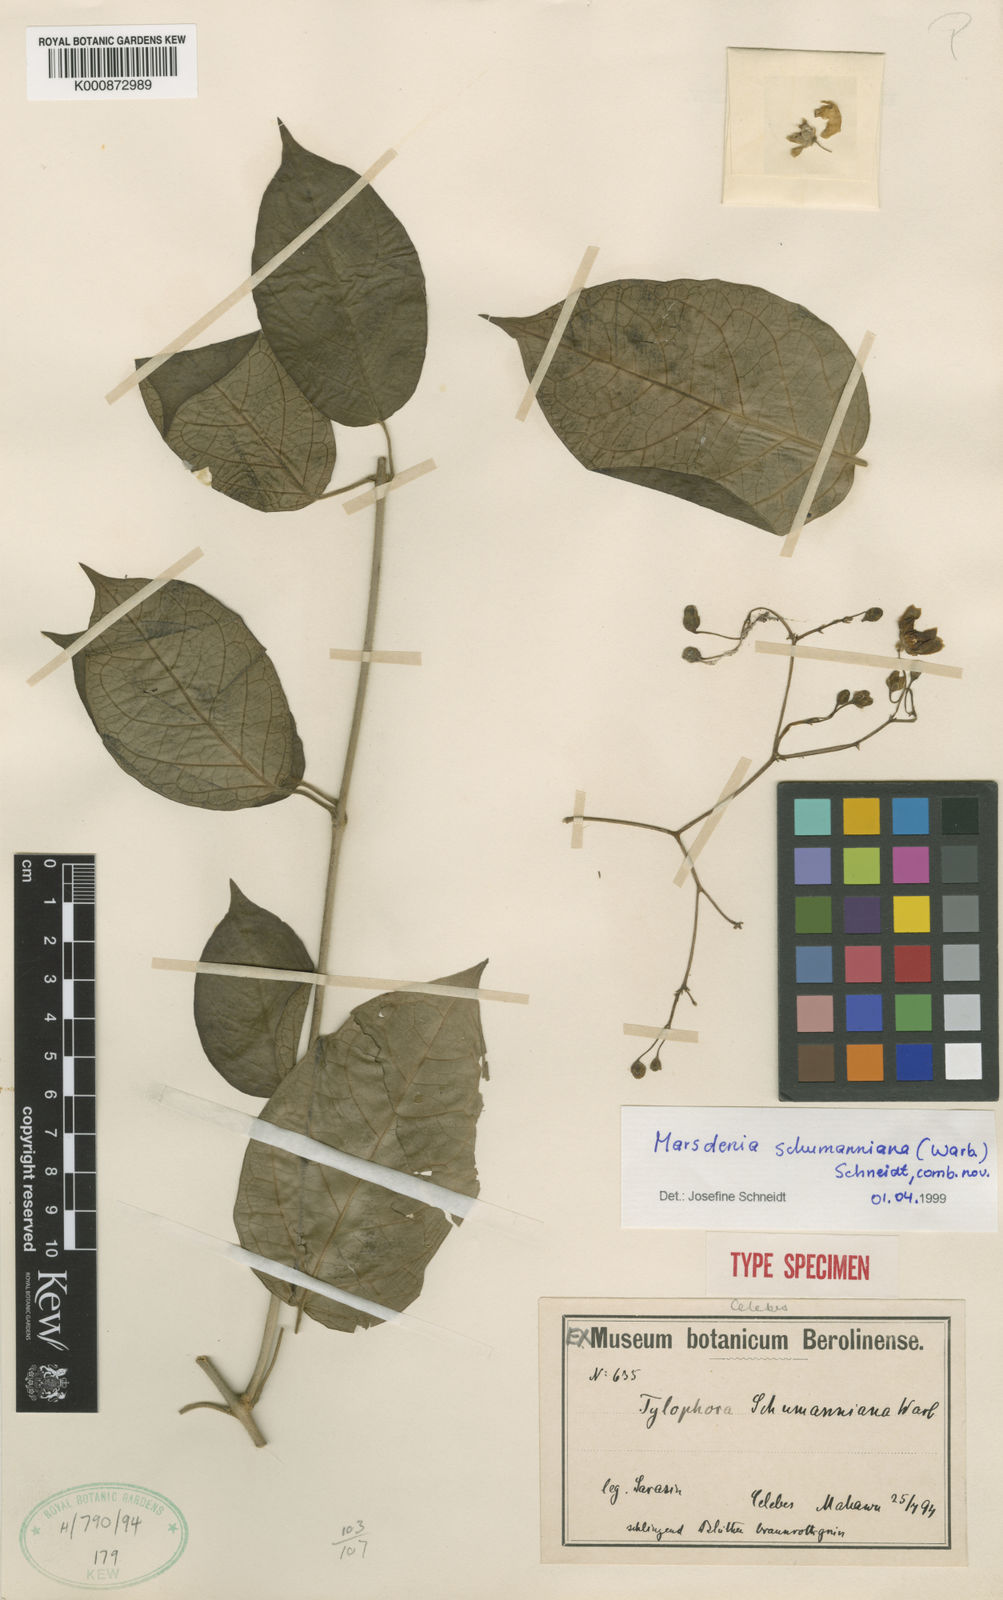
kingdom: Plantae
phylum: Tracheophyta
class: Magnoliopsida
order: Gentianales
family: Apocynaceae
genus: Marsdenia
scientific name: Marsdenia
